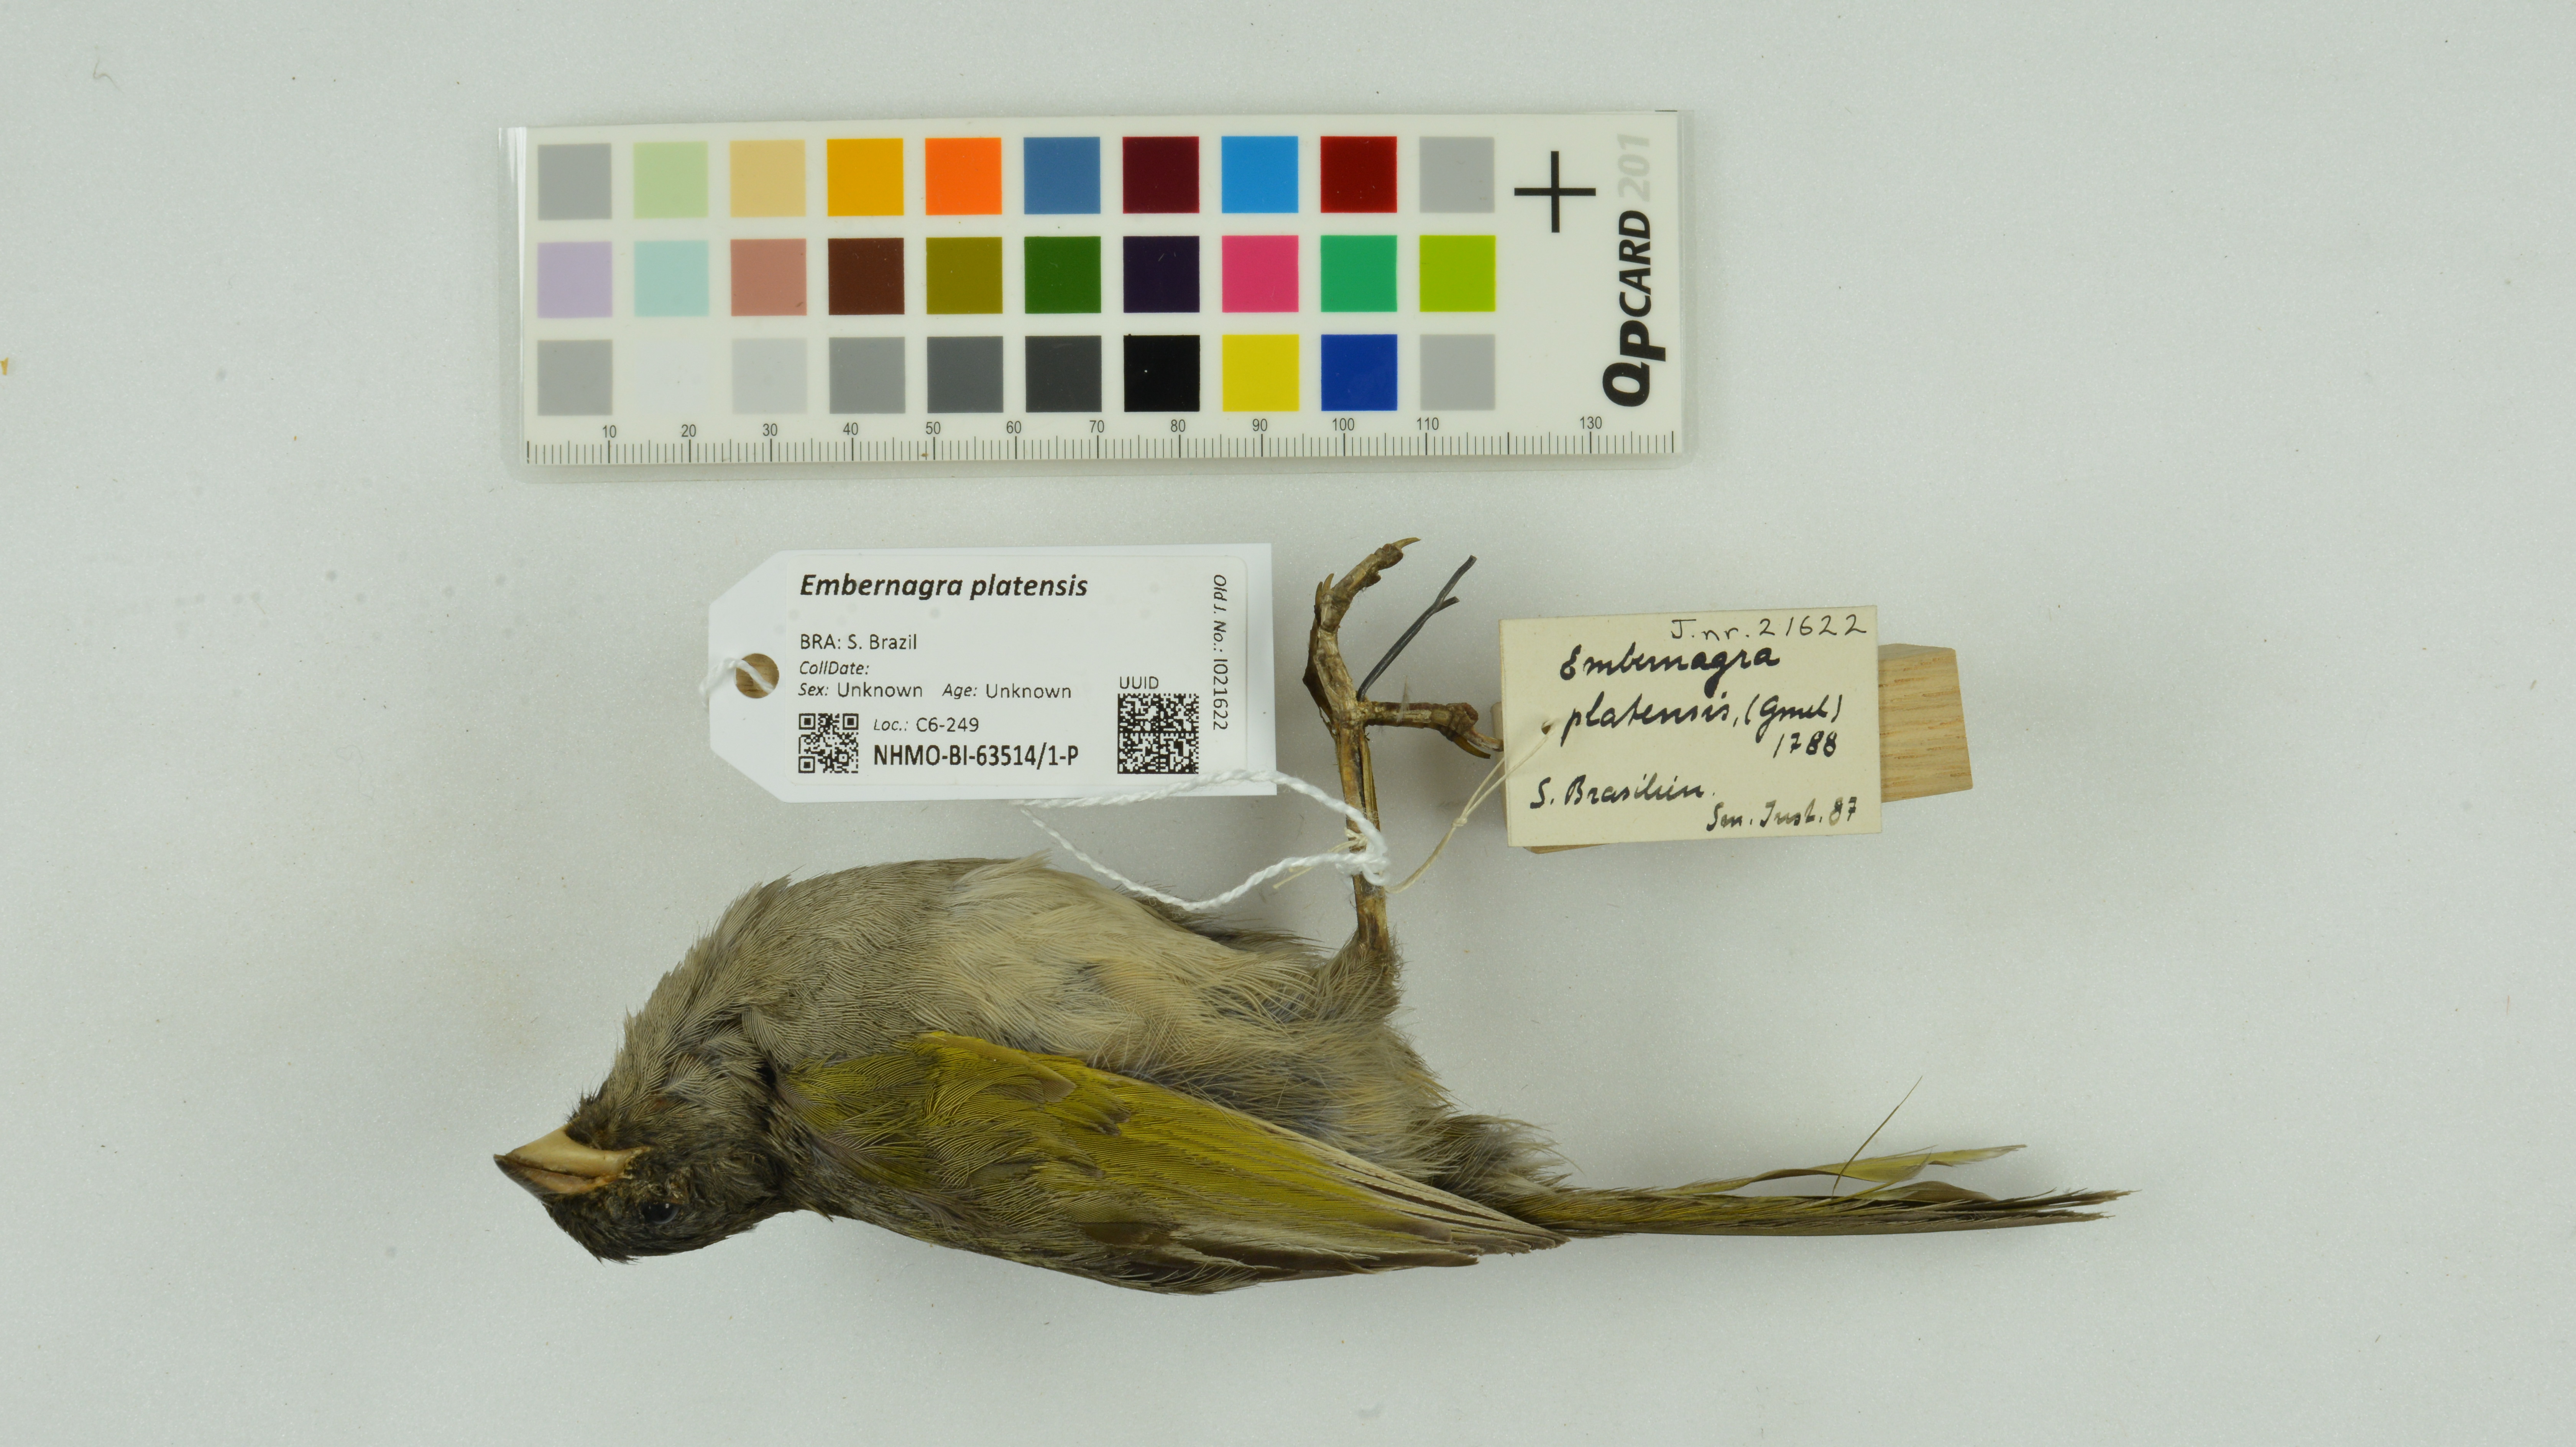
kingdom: Animalia
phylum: Chordata
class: Aves
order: Passeriformes
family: Thraupidae
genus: Embernagra
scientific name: Embernagra platensis
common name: Pampa finch
